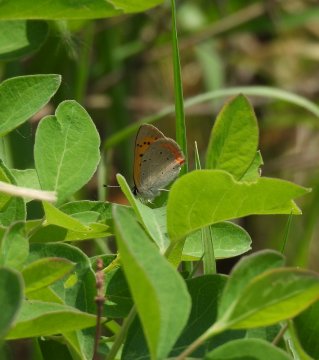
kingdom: Animalia
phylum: Arthropoda
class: Insecta
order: Lepidoptera
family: Sesiidae
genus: Sesia
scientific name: Sesia Lycaena helloides
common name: Purplish Copper
